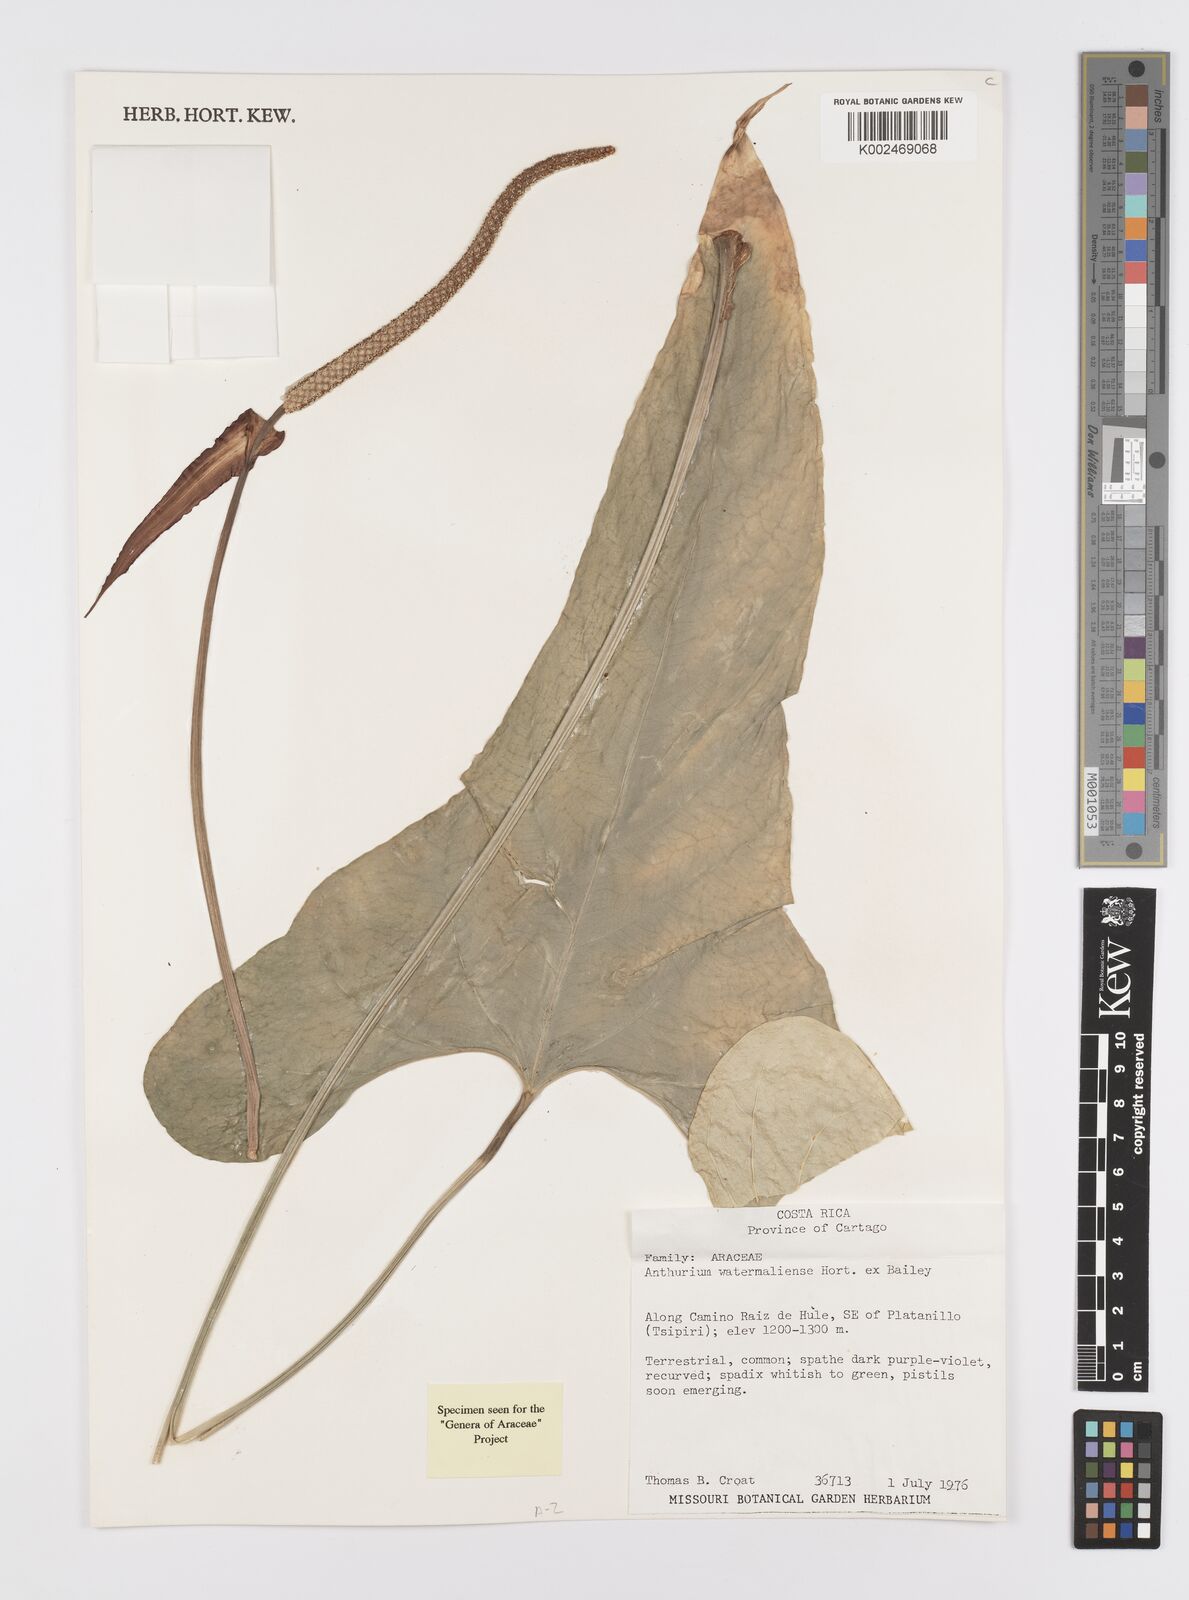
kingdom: Plantae
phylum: Tracheophyta
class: Liliopsida
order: Alismatales
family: Araceae
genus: Anthurium
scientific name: Anthurium watermaliense
